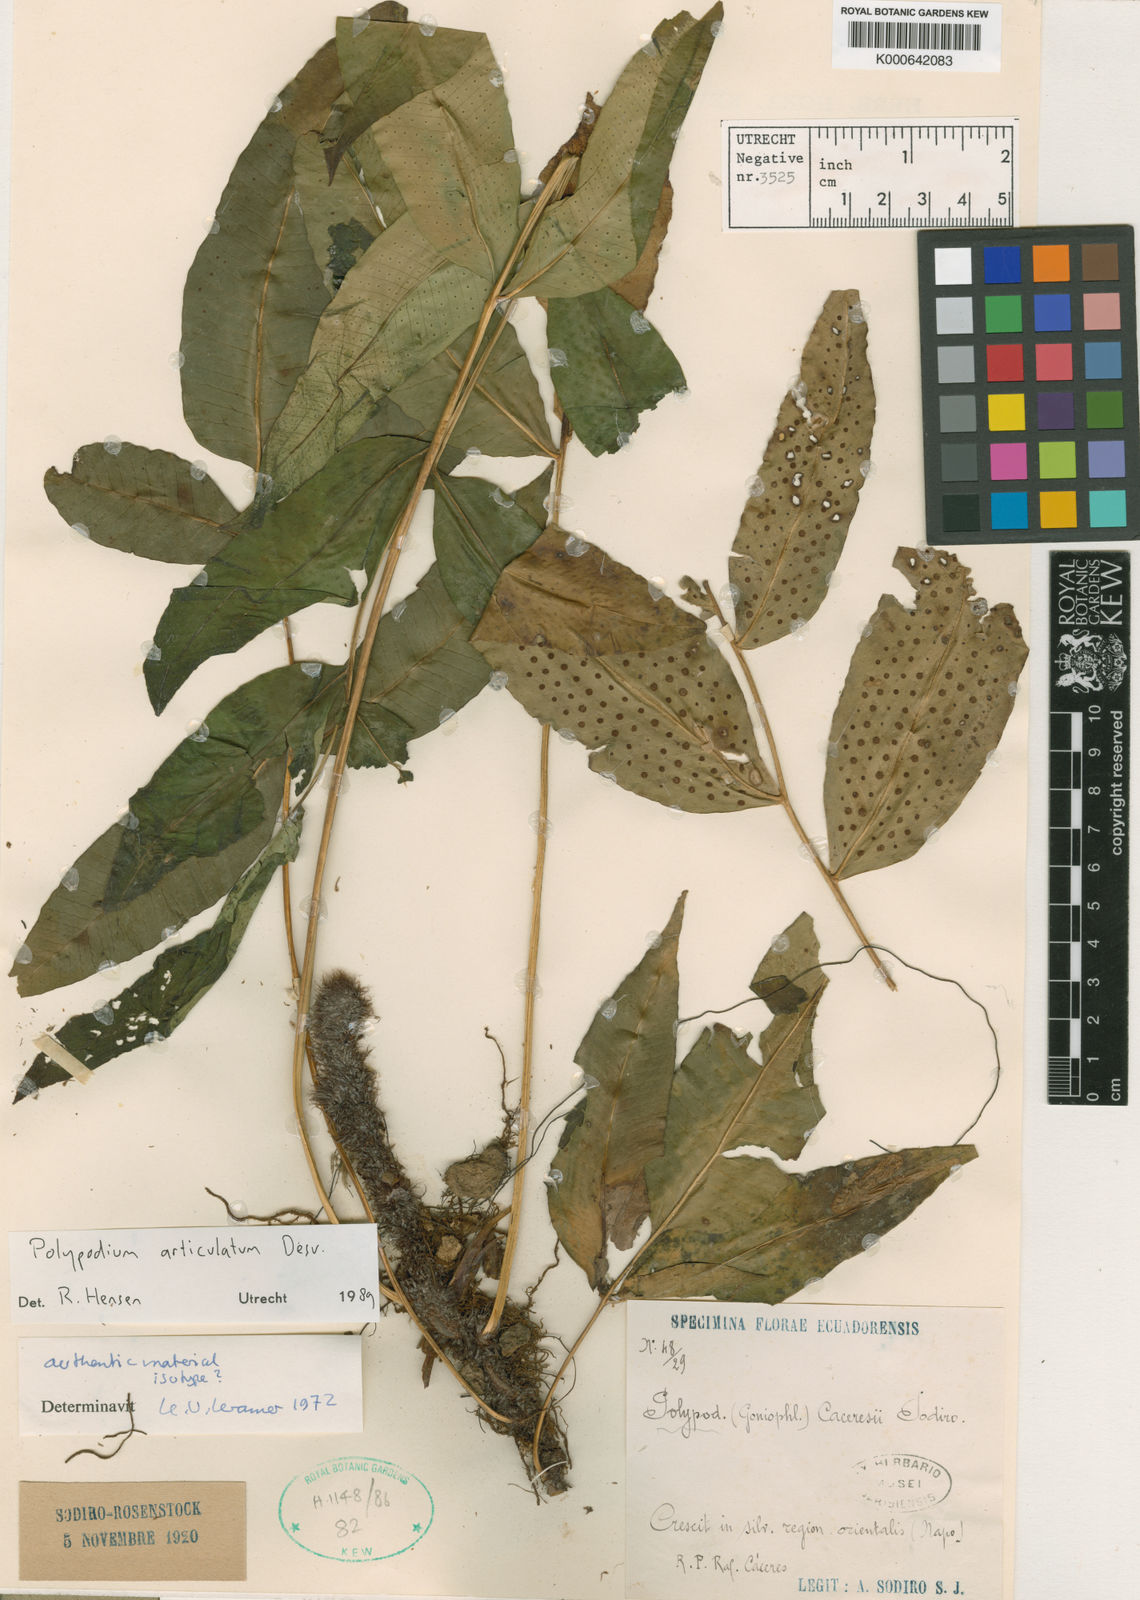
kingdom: Plantae
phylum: Tracheophyta
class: Polypodiopsida
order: Polypodiales
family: Polypodiaceae
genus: Serpocaulon
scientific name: Serpocaulon articulatum
